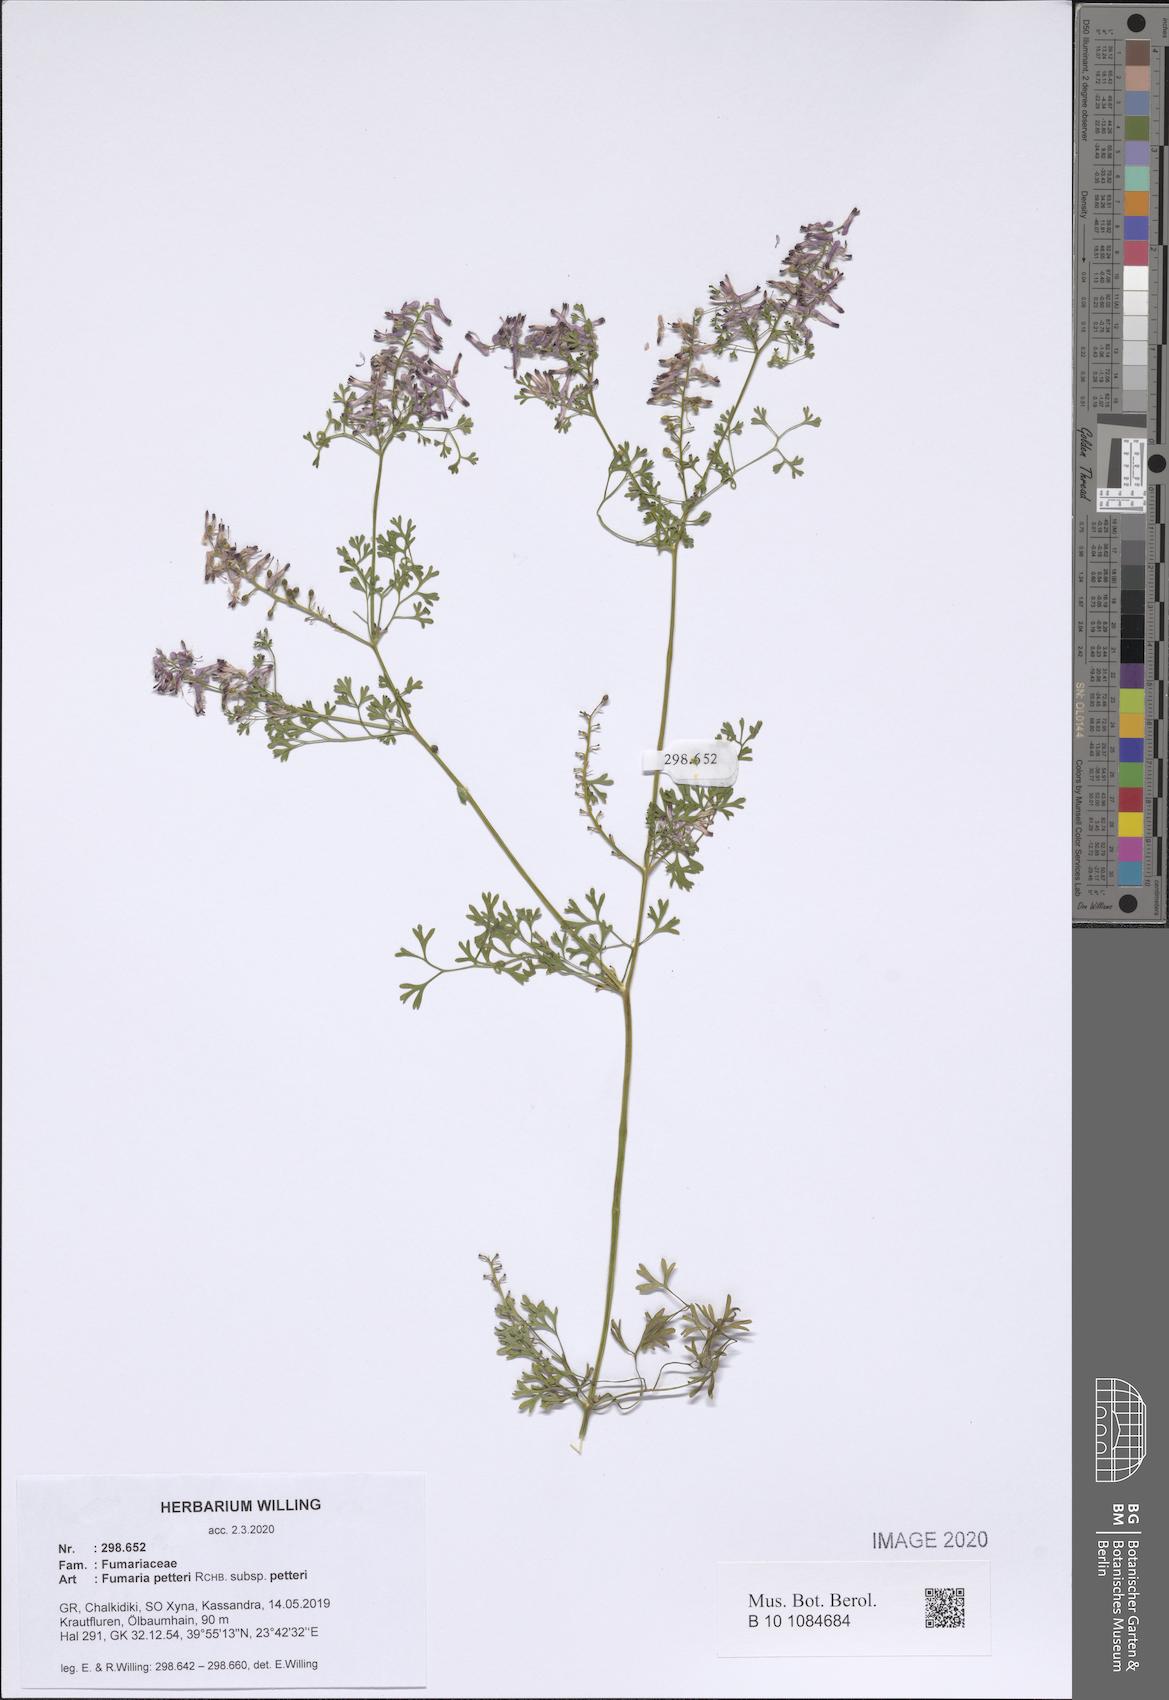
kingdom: Plantae
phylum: Tracheophyta
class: Magnoliopsida
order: Ranunculales
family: Papaveraceae
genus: Fumaria
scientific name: Fumaria petteri
